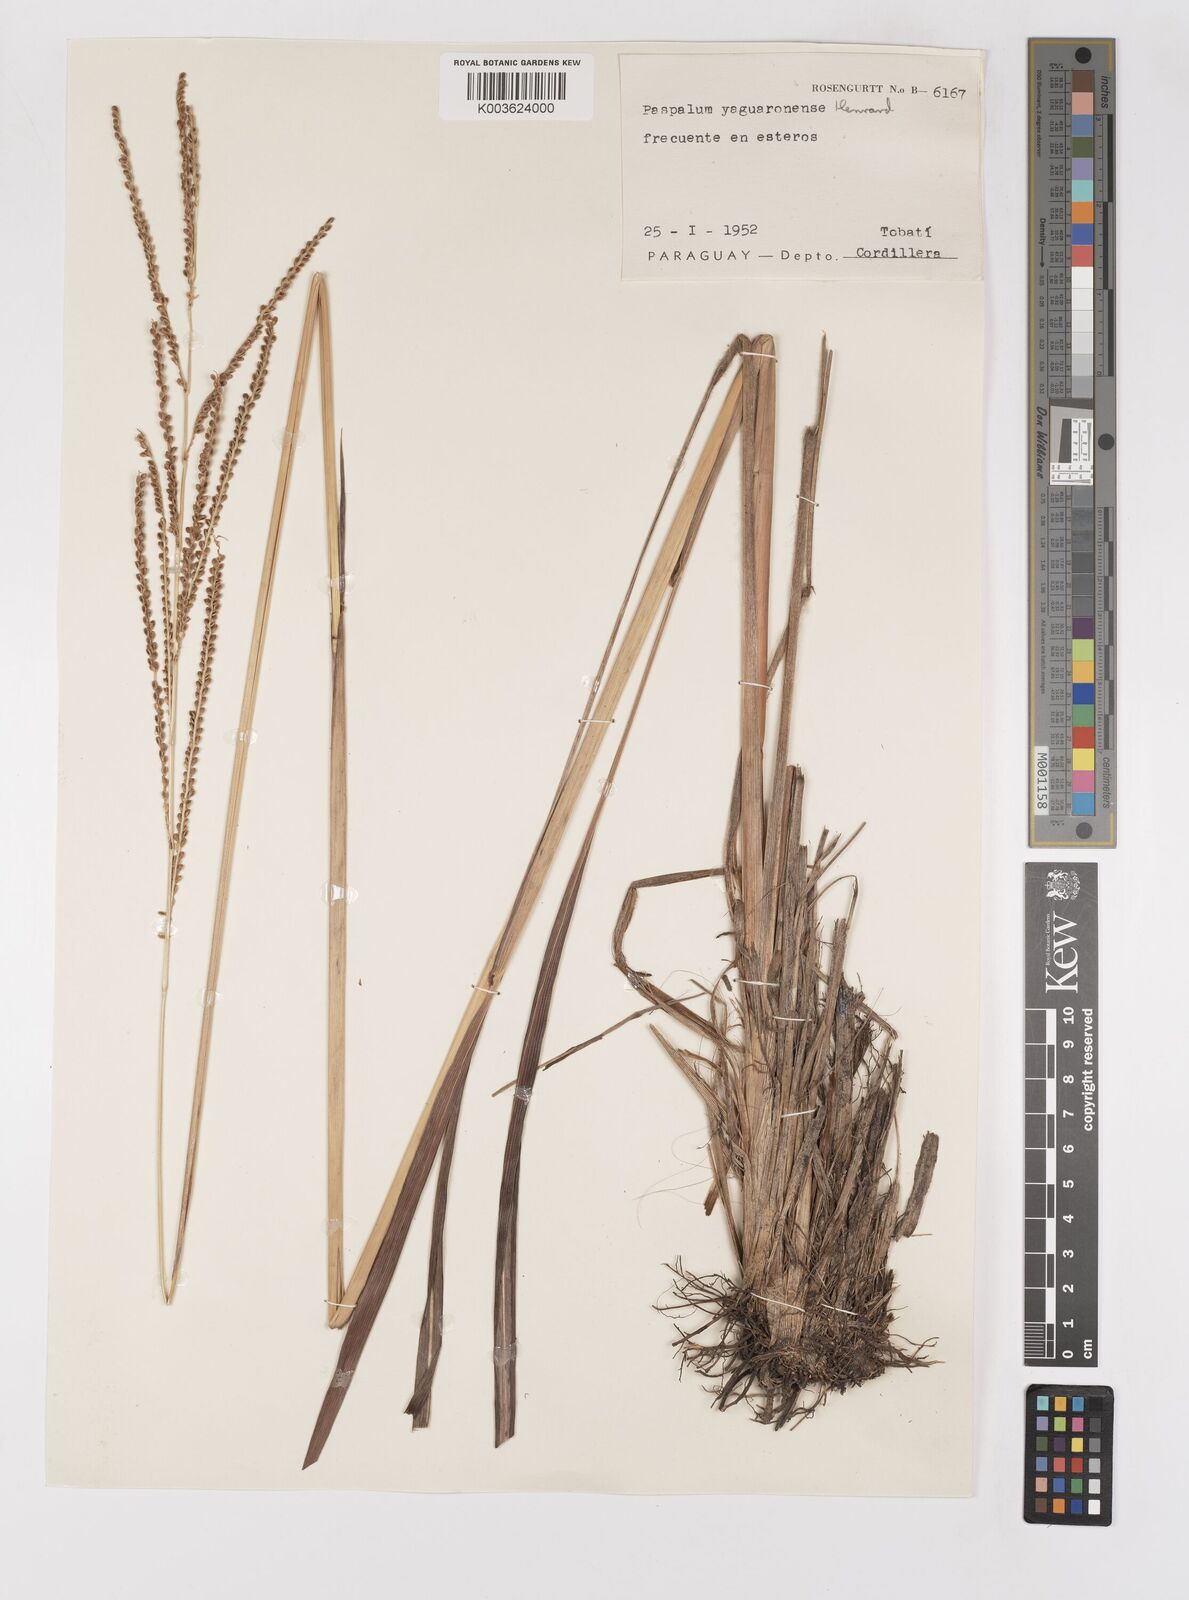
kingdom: Plantae
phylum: Tracheophyta
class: Liliopsida
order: Poales
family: Poaceae
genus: Paspalum
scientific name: Paspalum glaucescens
